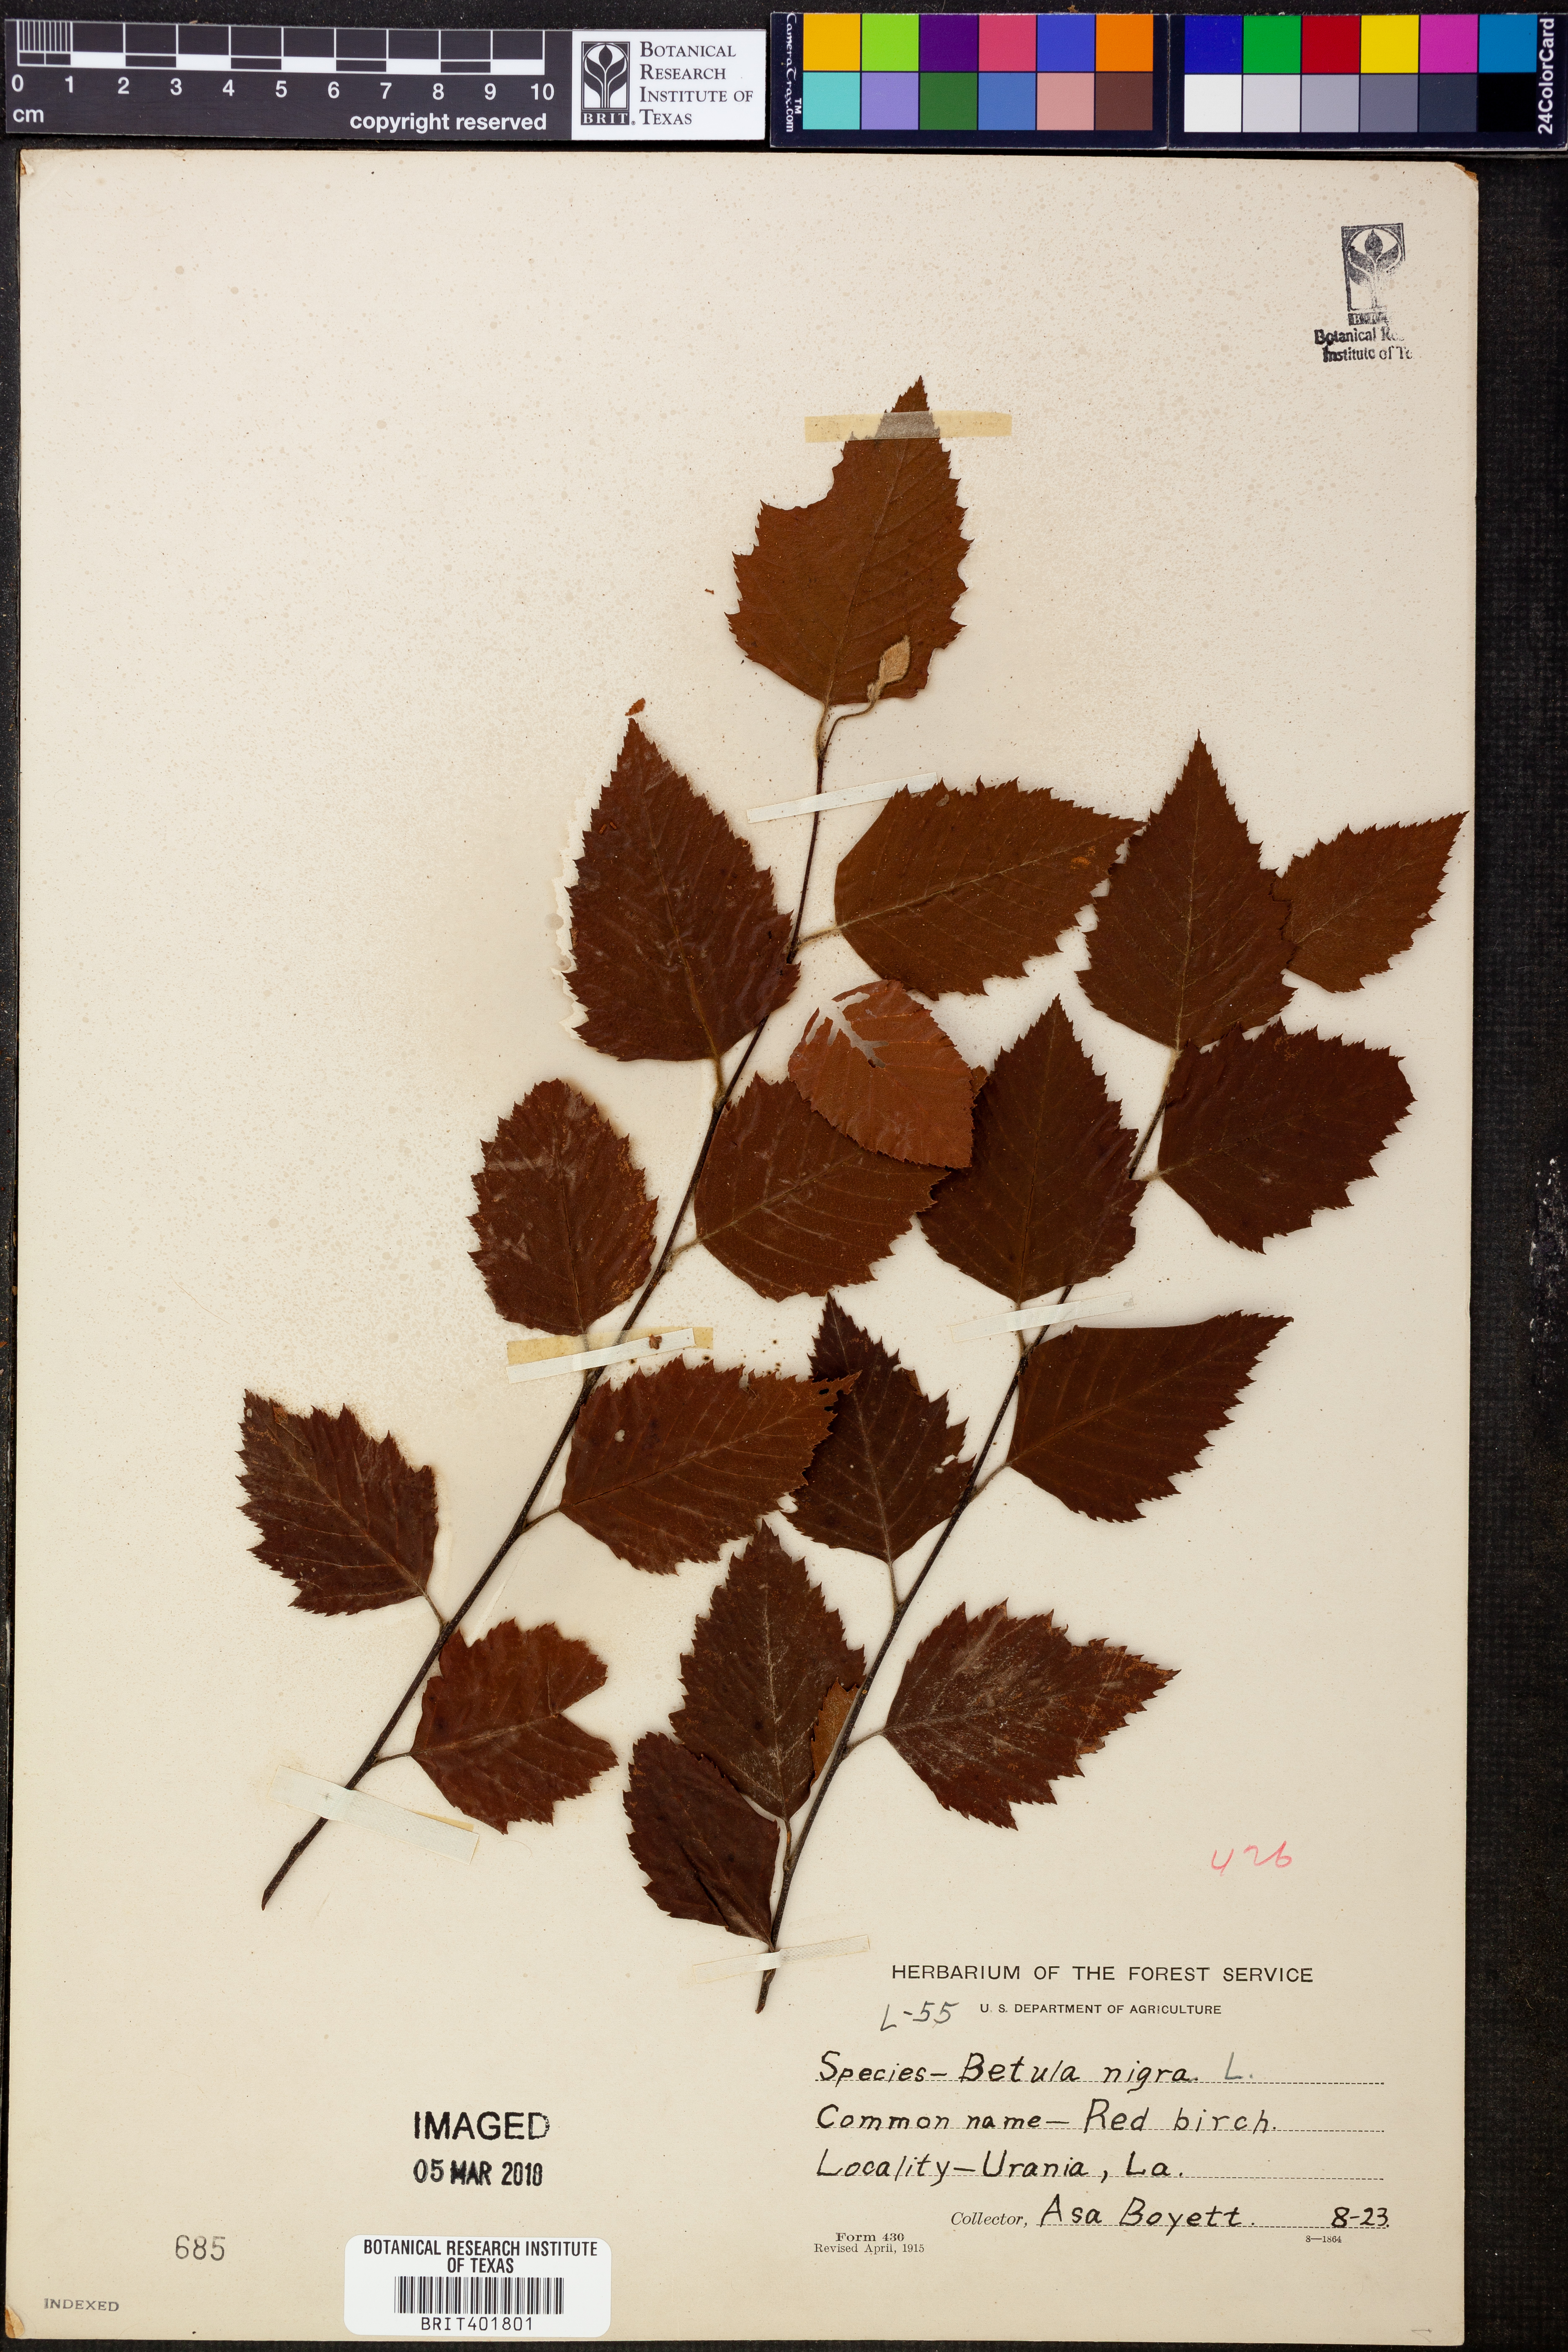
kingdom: Plantae
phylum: Tracheophyta
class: Magnoliopsida
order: Fagales
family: Betulaceae
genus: Betula
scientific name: Betula nigra
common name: Black birch
